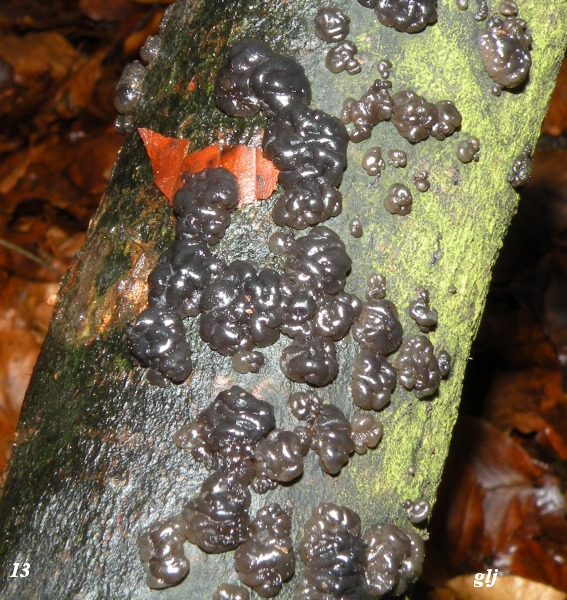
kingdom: Fungi
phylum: Basidiomycota
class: Agaricomycetes
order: Auriculariales
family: Auriculariaceae
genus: Exidia
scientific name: Exidia nigricans
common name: almindelig bævretop
